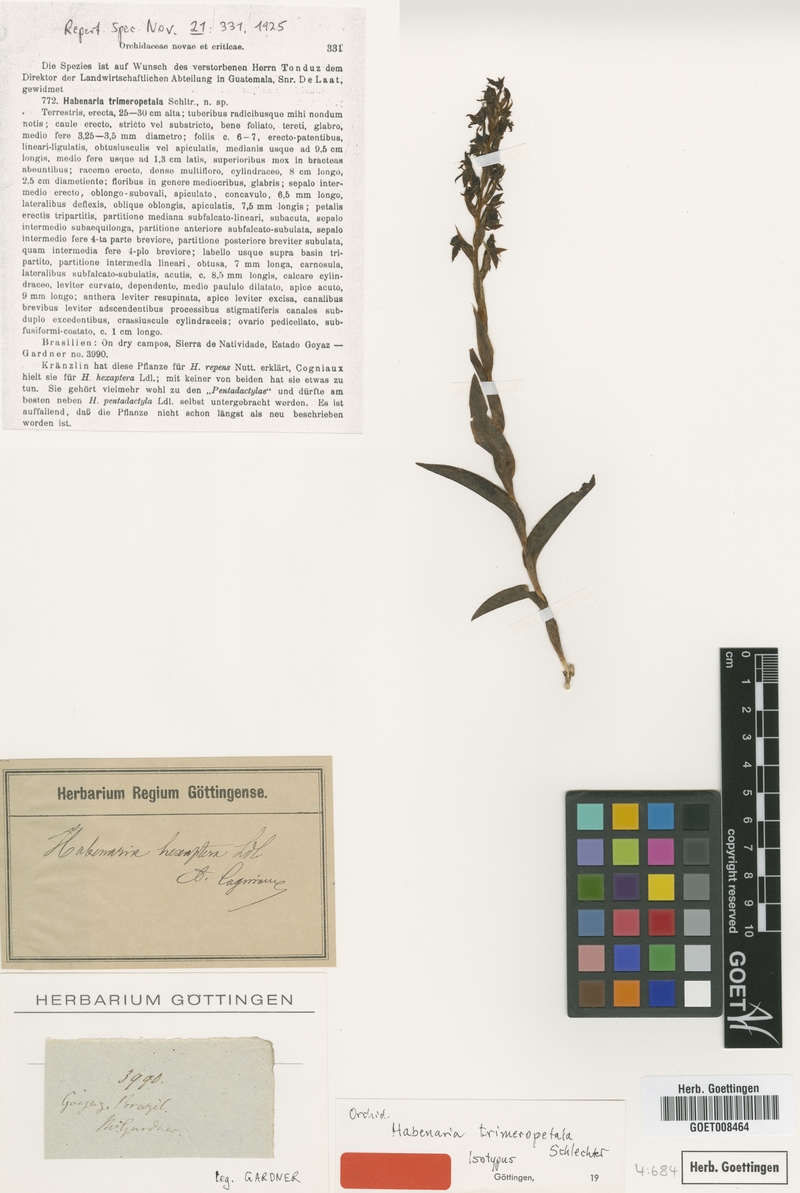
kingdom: Plantae
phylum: Tracheophyta
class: Liliopsida
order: Asparagales
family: Orchidaceae
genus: Habenaria
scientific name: Habenaria coxipoensis
